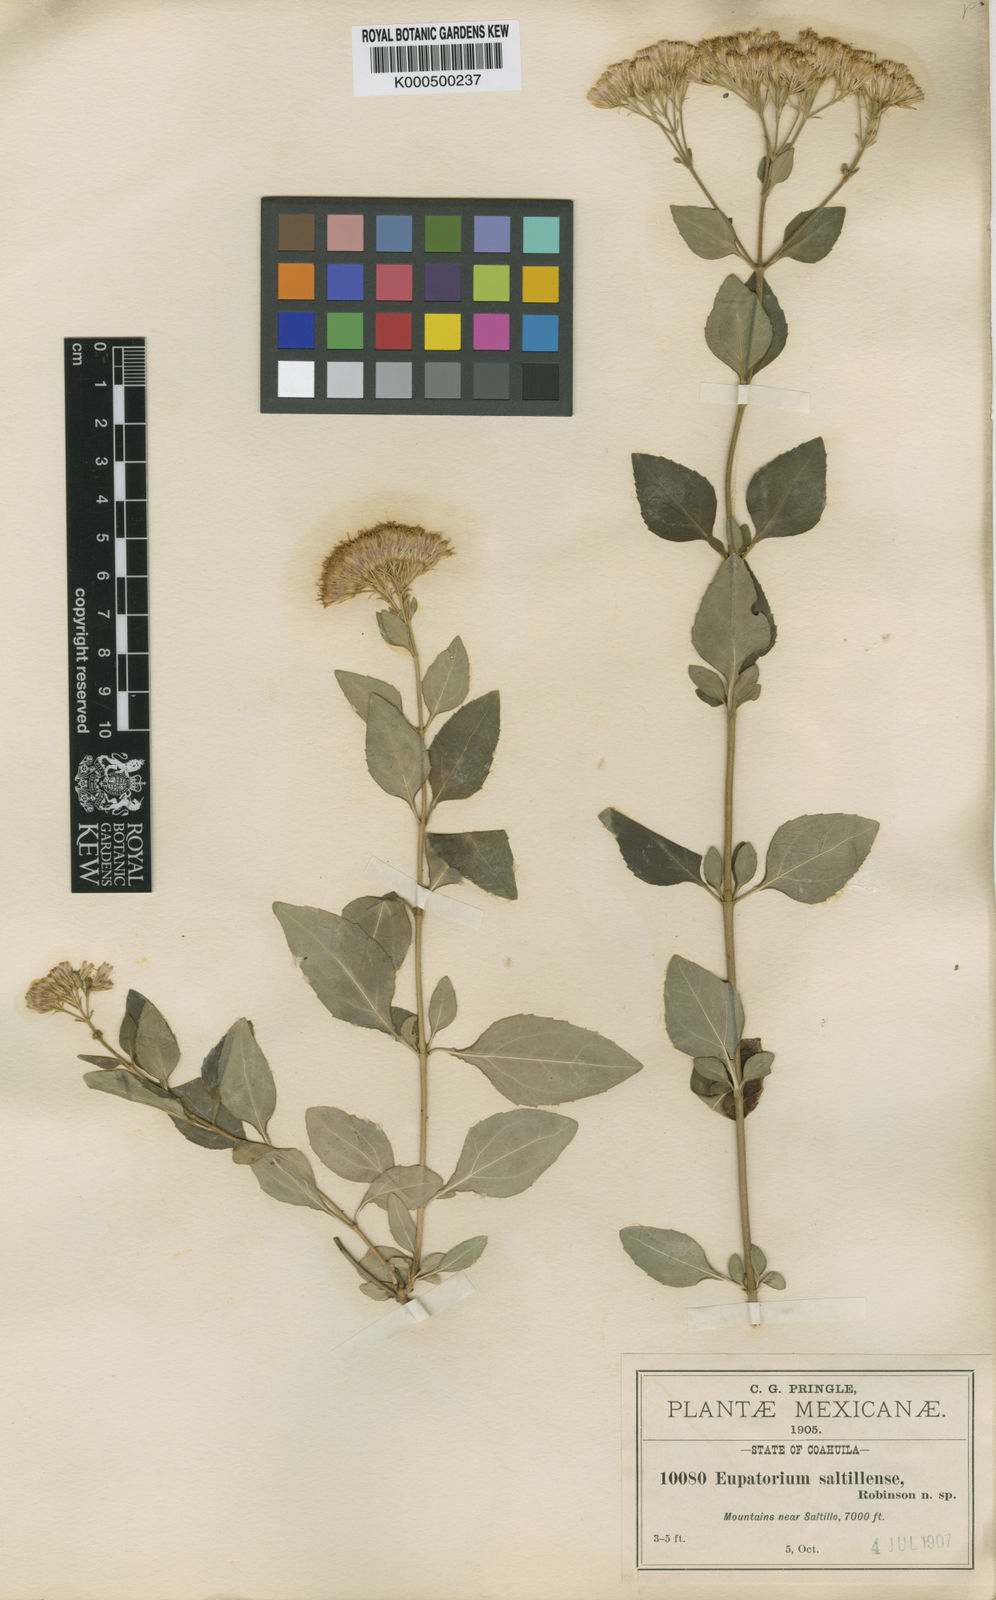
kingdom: Plantae
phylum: Tracheophyta
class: Magnoliopsida
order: Asterales
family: Asteraceae
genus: Ageratina
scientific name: Ageratina saltillensis
